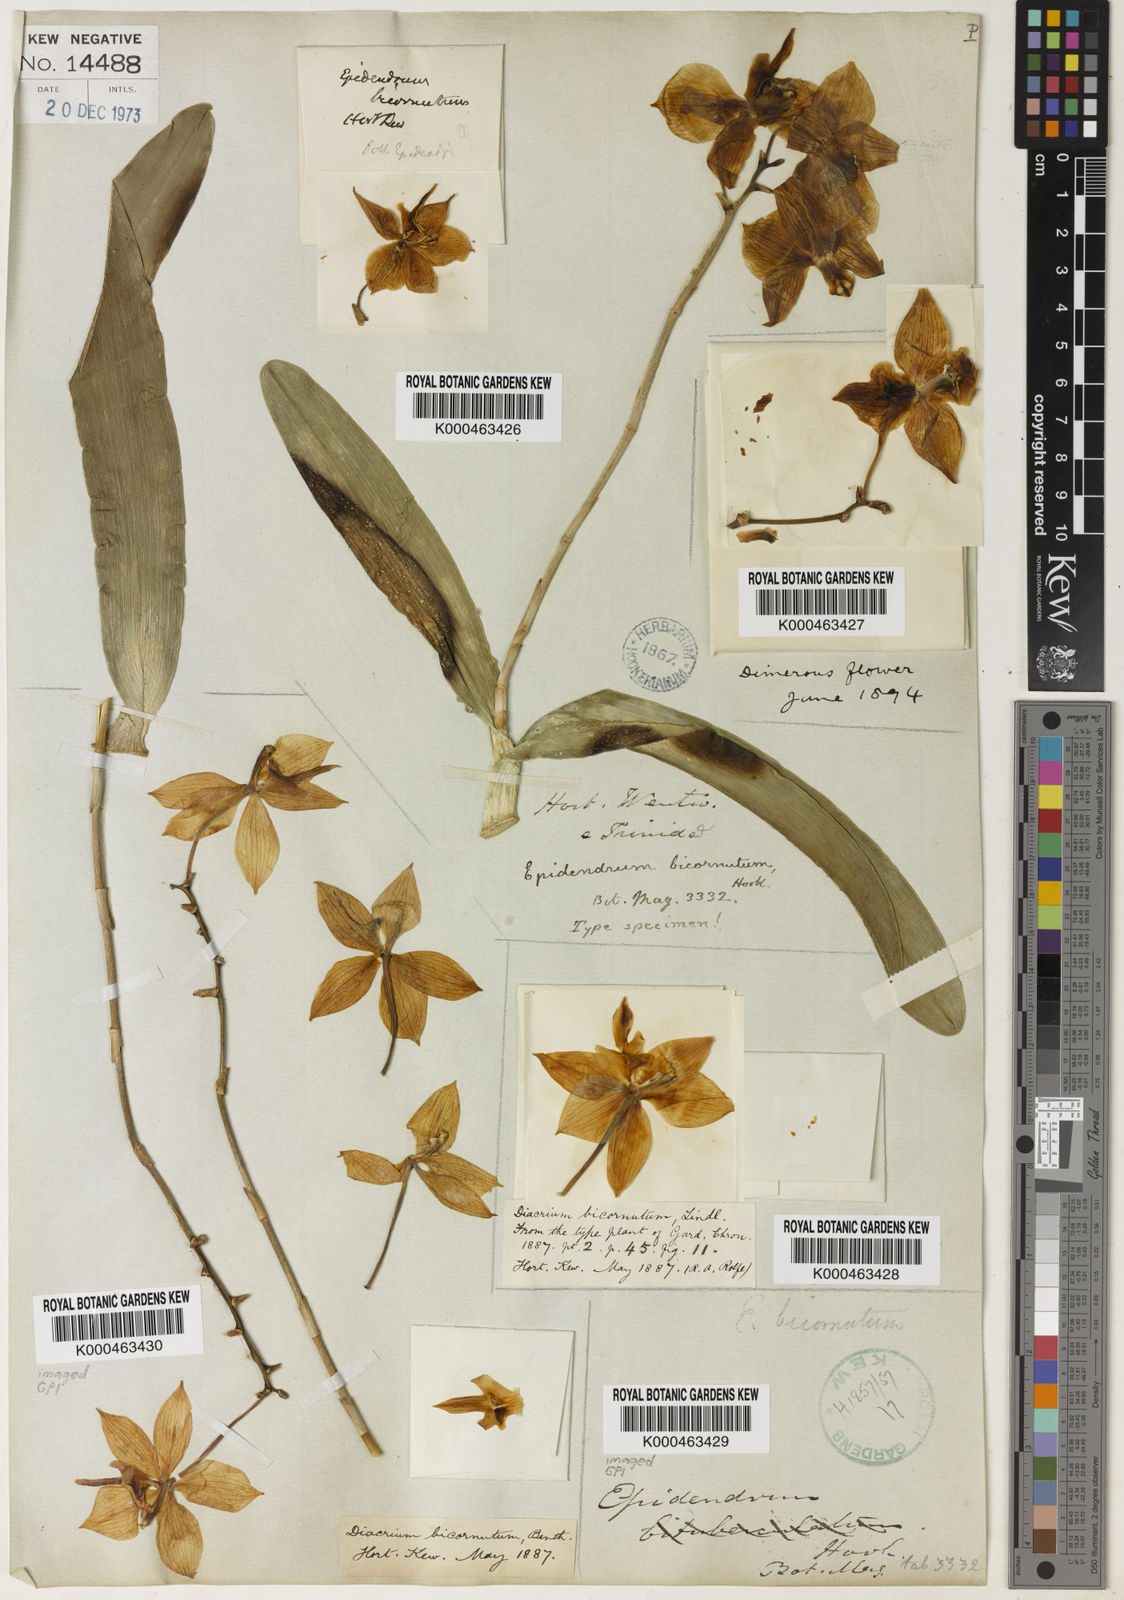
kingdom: Plantae
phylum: Tracheophyta
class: Liliopsida
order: Asparagales
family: Orchidaceae
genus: Caularthron
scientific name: Caularthron bicornutum
